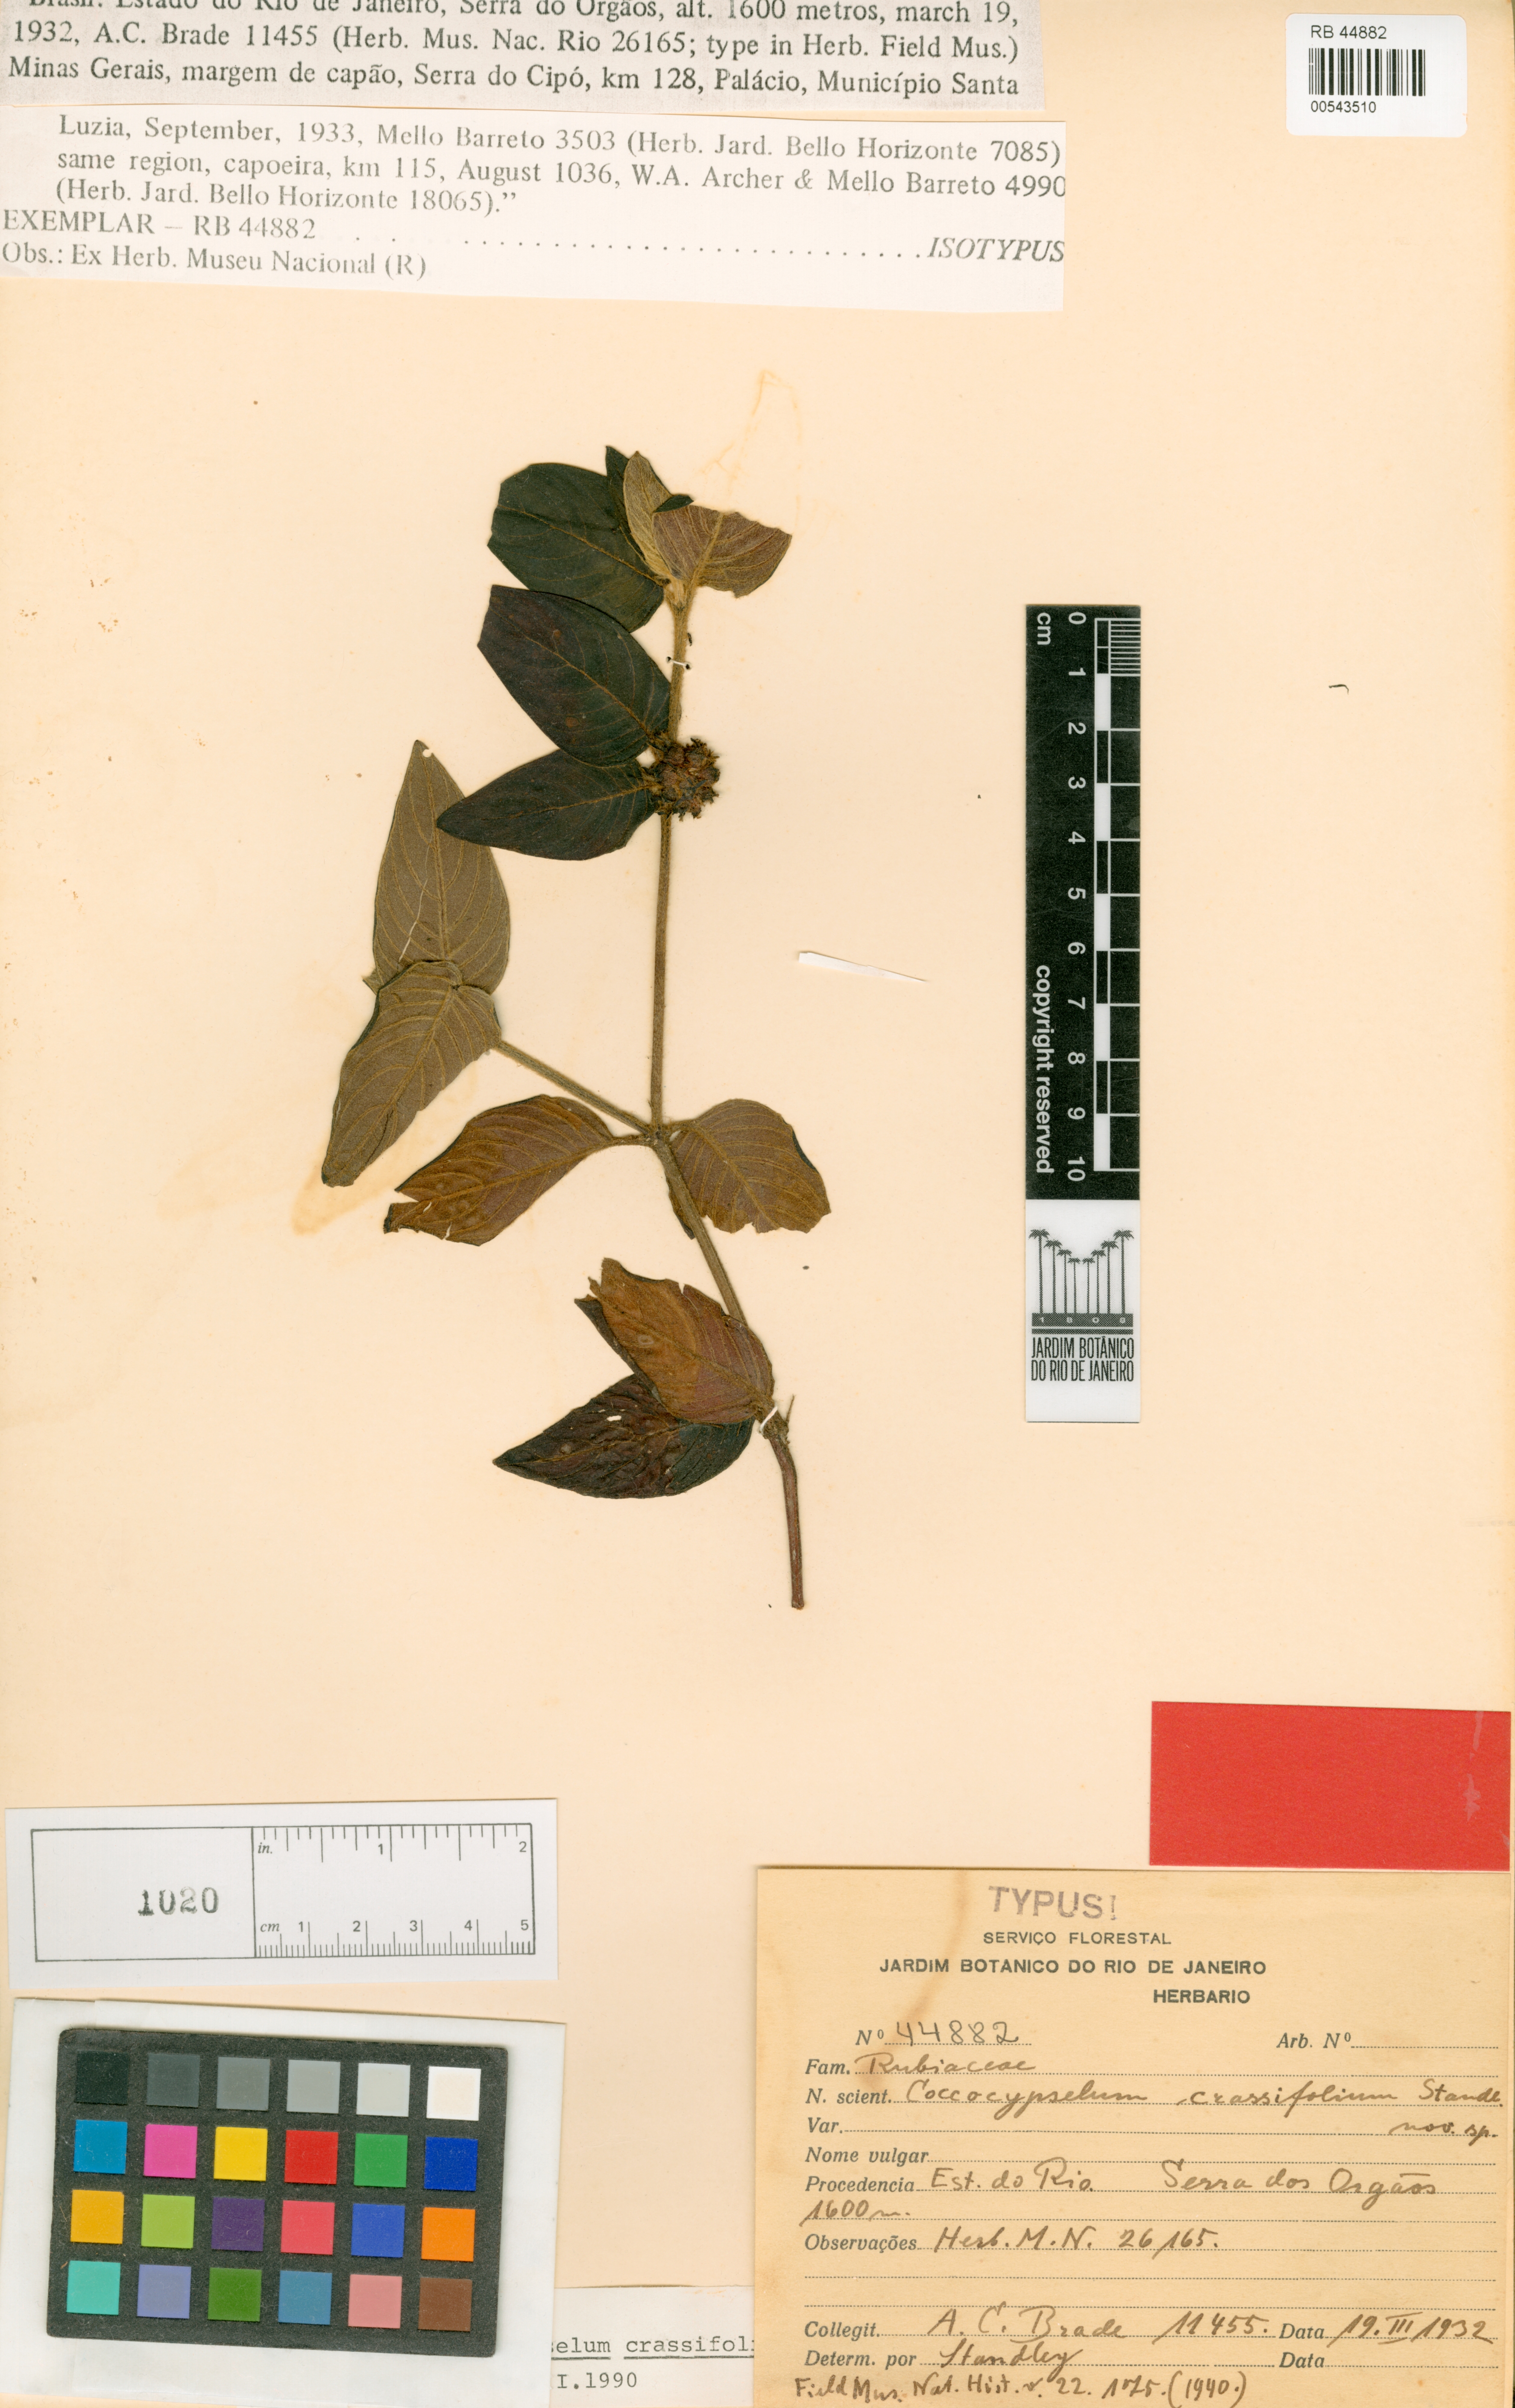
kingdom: Plantae
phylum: Tracheophyta
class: Magnoliopsida
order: Gentianales
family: Rubiaceae
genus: Coccocypselum
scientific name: Coccocypselum lanceolatum
